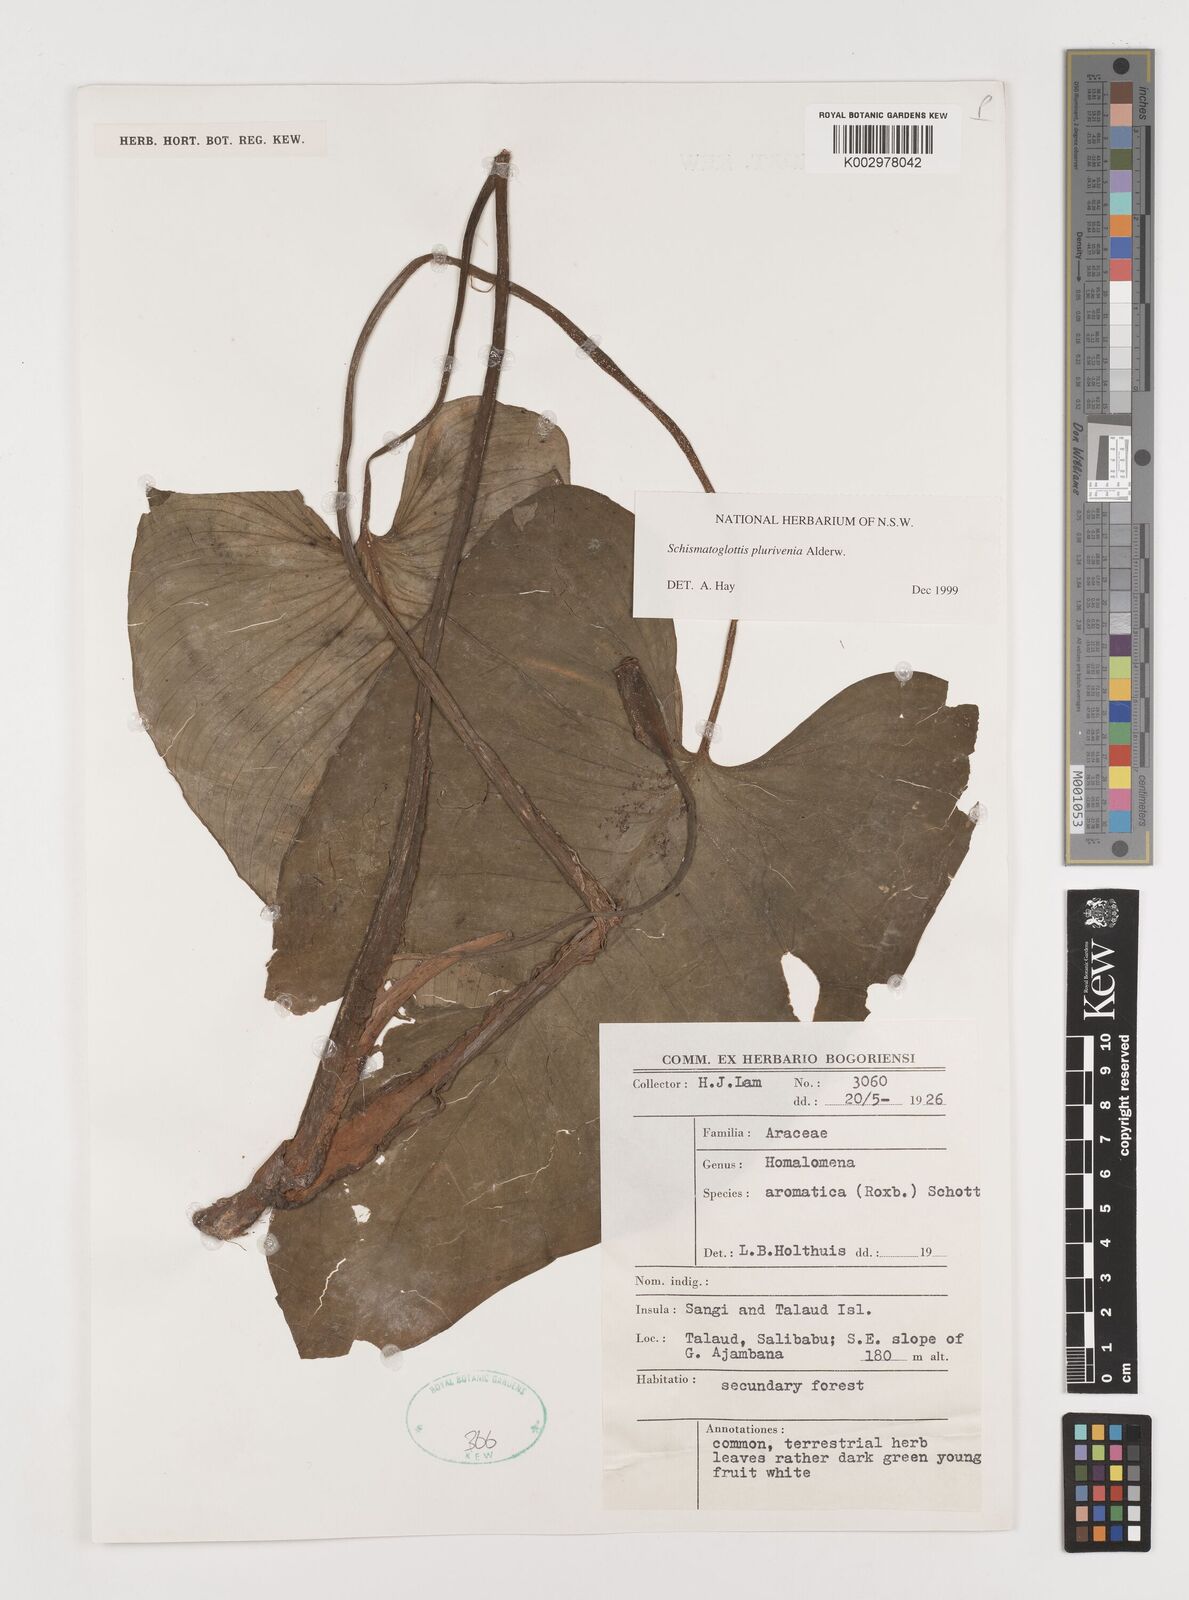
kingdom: Plantae
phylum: Tracheophyta
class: Liliopsida
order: Alismatales
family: Araceae
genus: Schismatoglottis
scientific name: Schismatoglottis plurivenia
